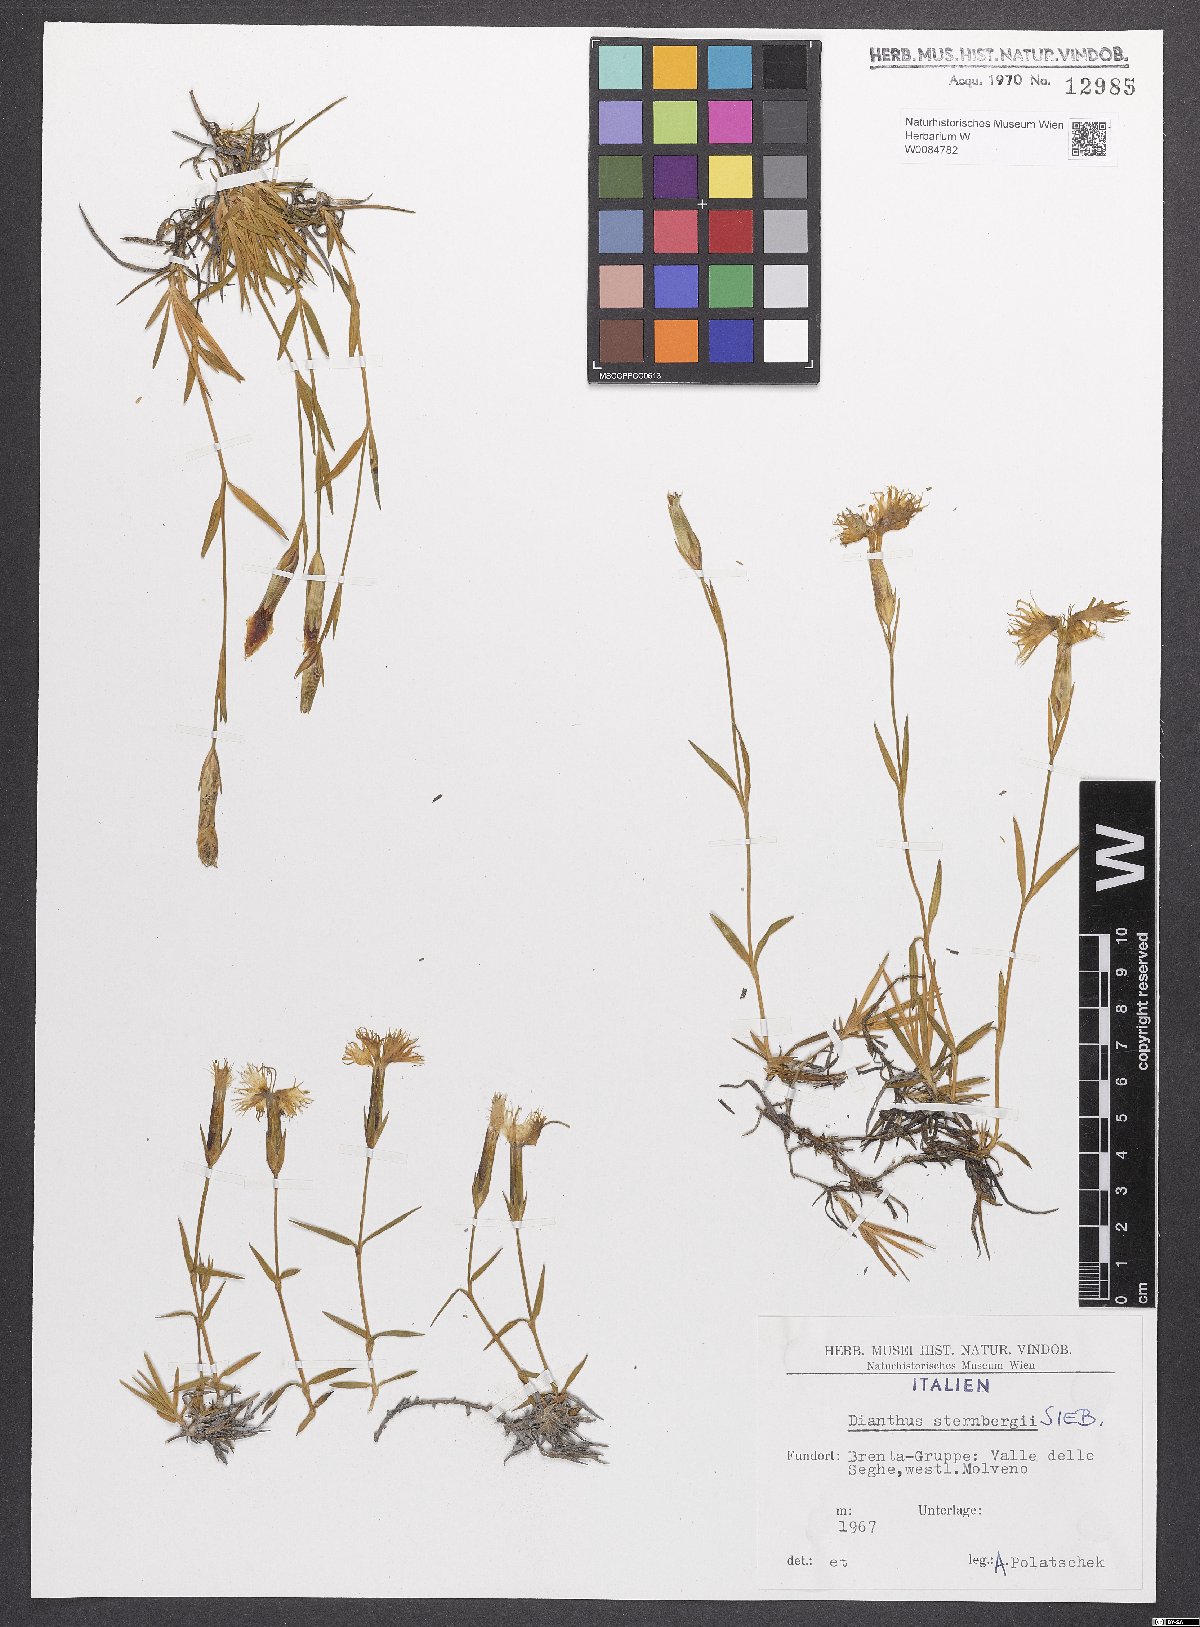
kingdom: Plantae
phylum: Tracheophyta
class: Magnoliopsida
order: Caryophyllales
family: Caryophyllaceae
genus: Dianthus
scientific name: Dianthus monspessulanus
